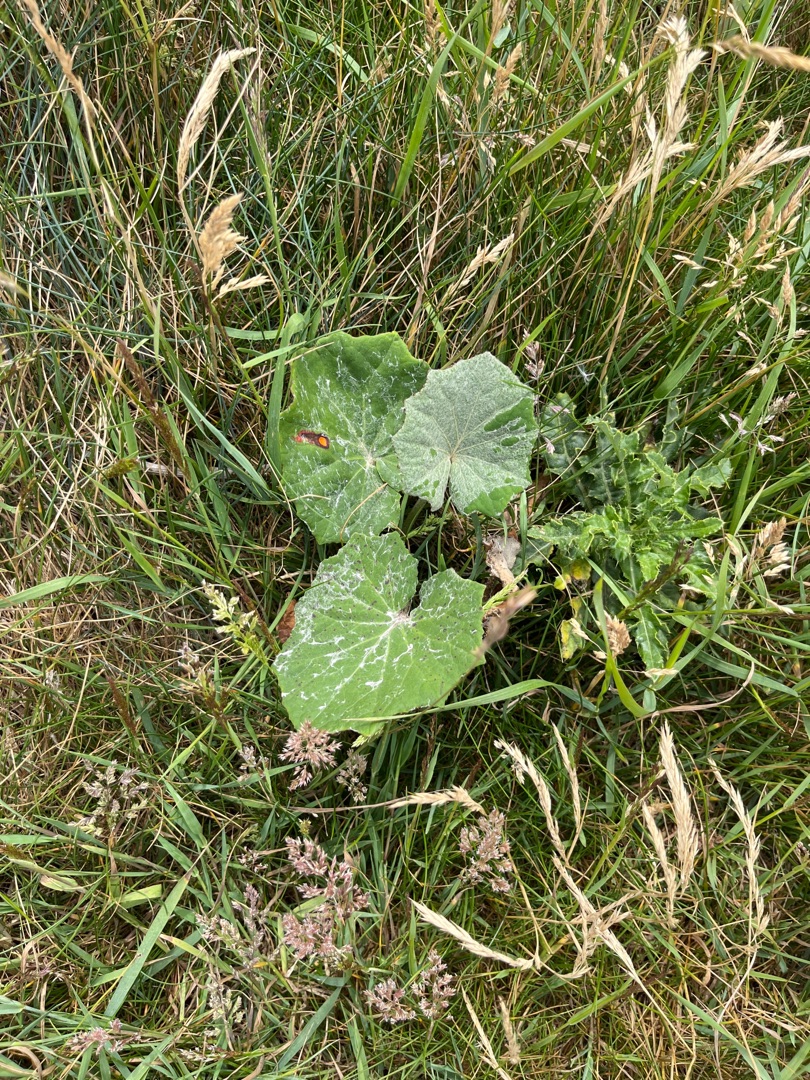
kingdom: Plantae
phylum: Tracheophyta
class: Magnoliopsida
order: Asterales
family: Asteraceae
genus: Tussilago
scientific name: Tussilago farfara
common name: Følfod
